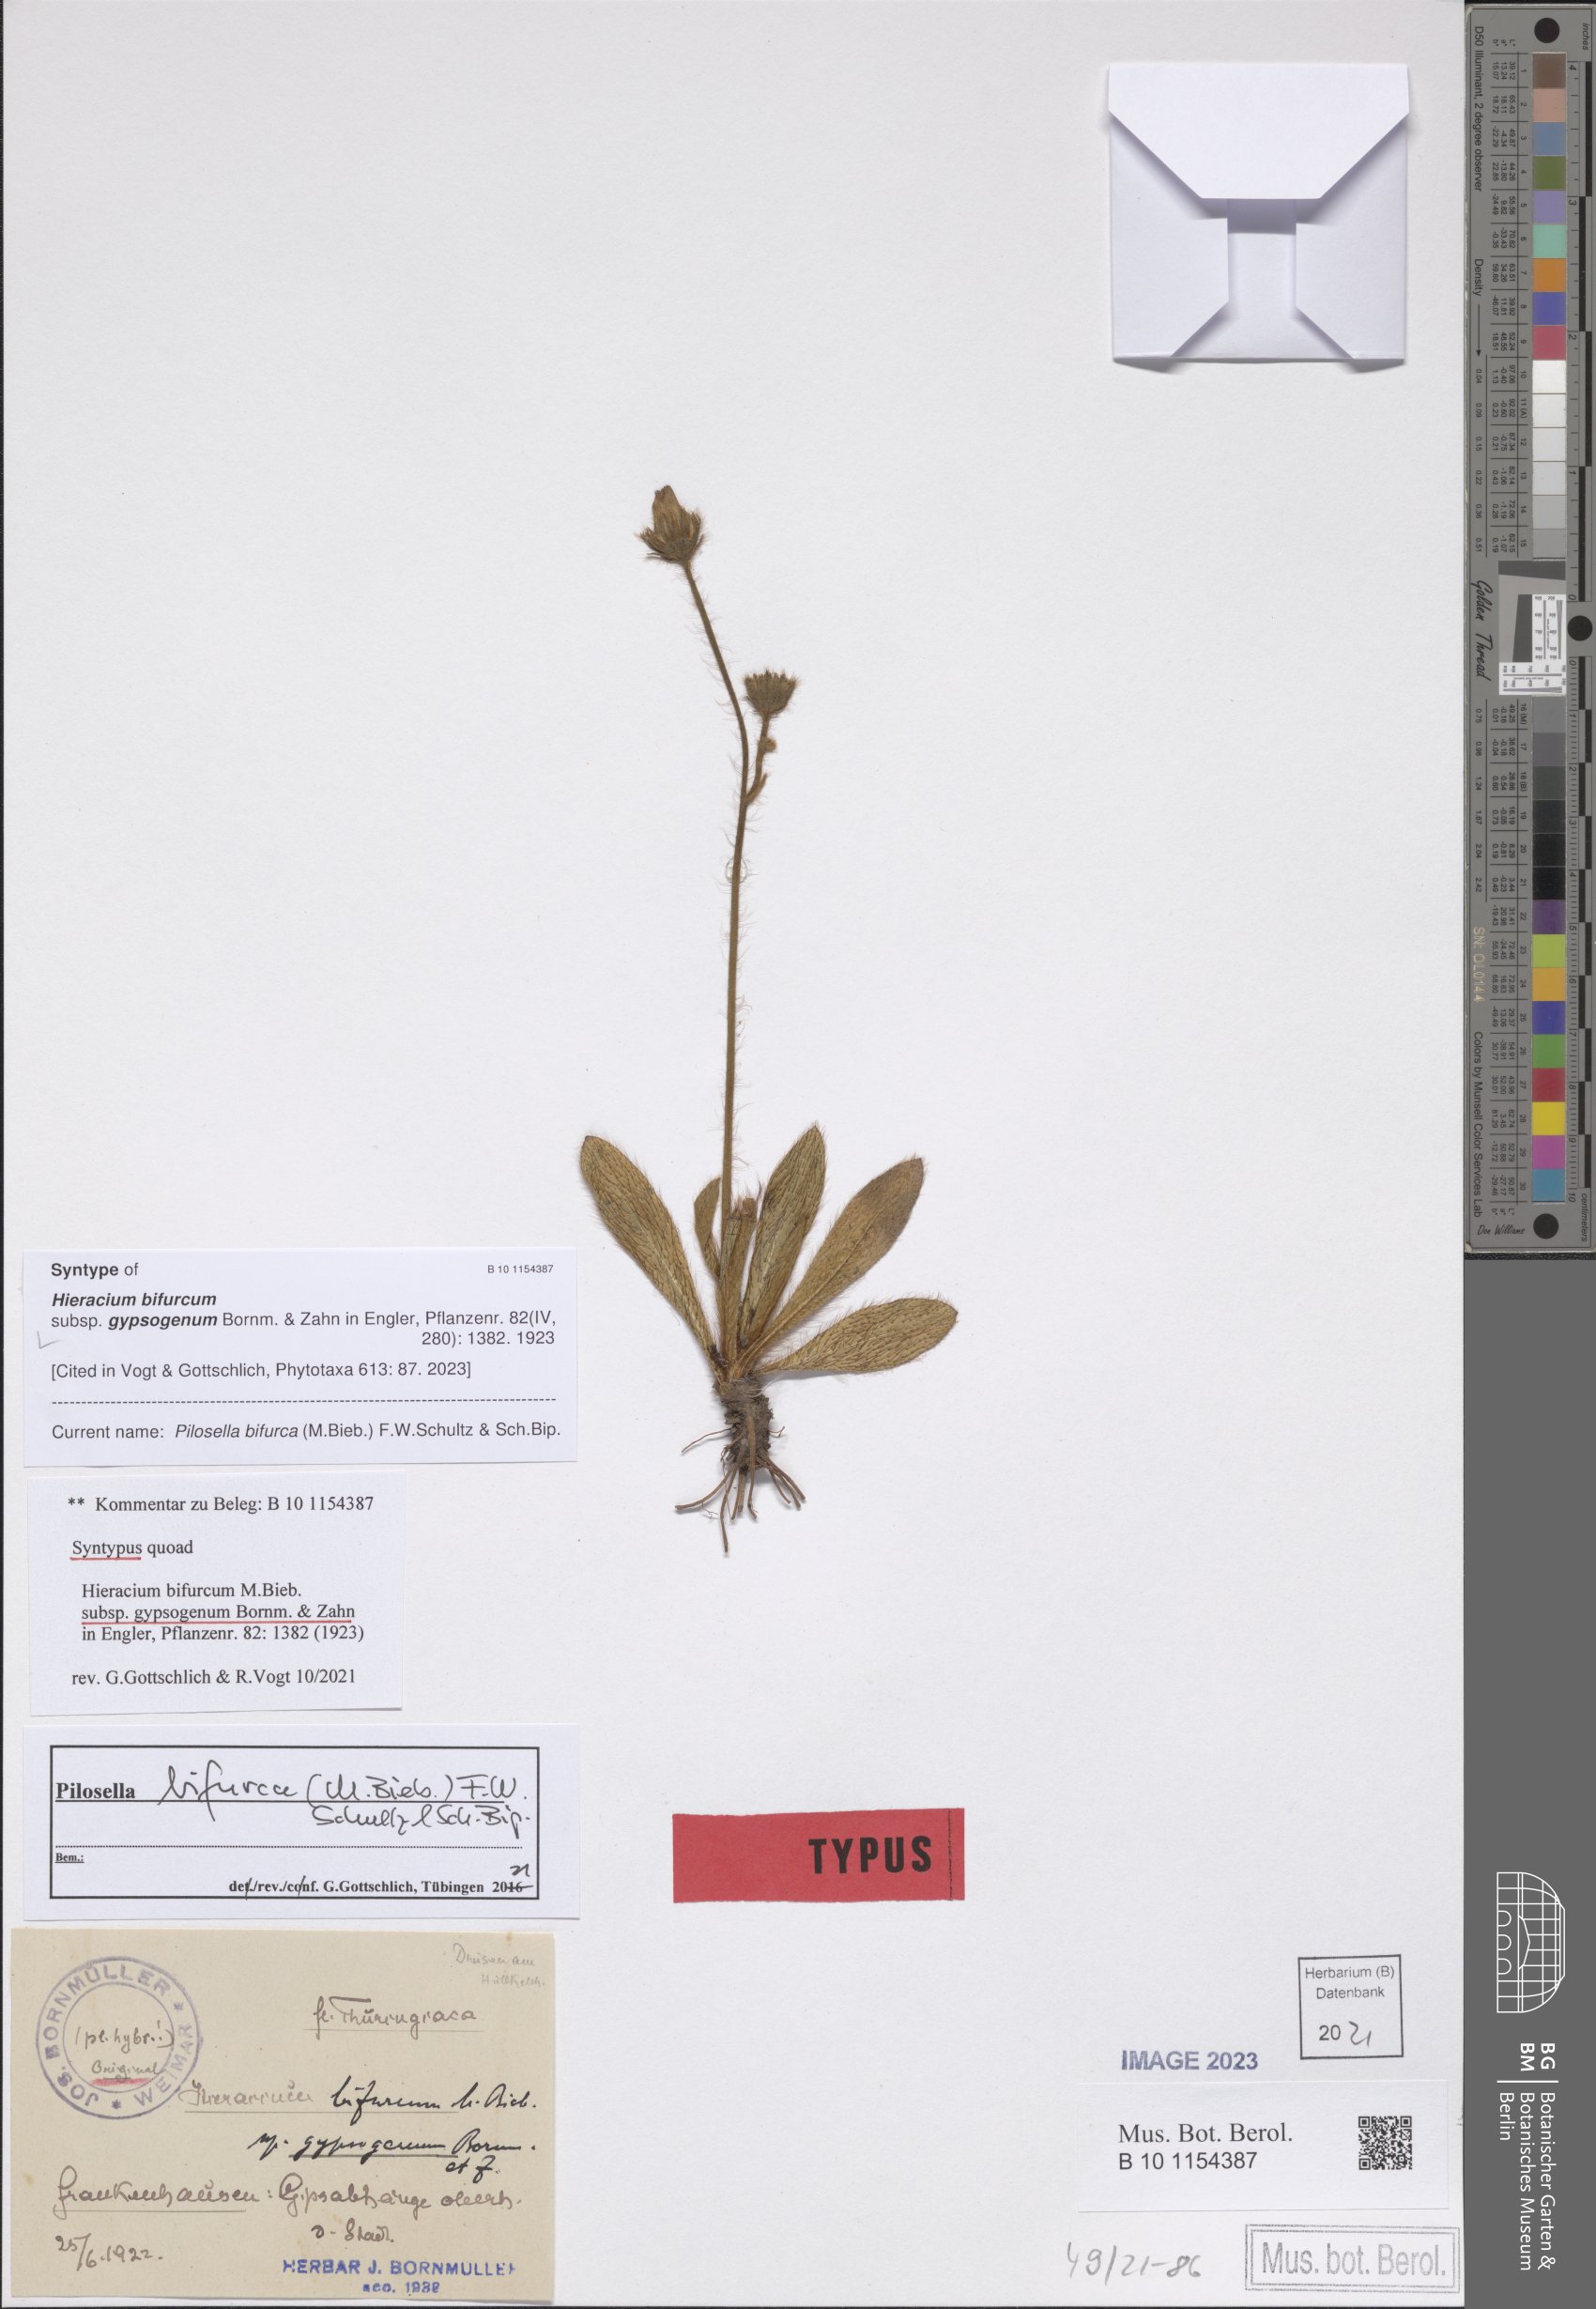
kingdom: Plantae
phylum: Tracheophyta
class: Magnoliopsida
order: Asterales
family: Asteraceae
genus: Pilosella
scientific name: Pilosella bifurca
